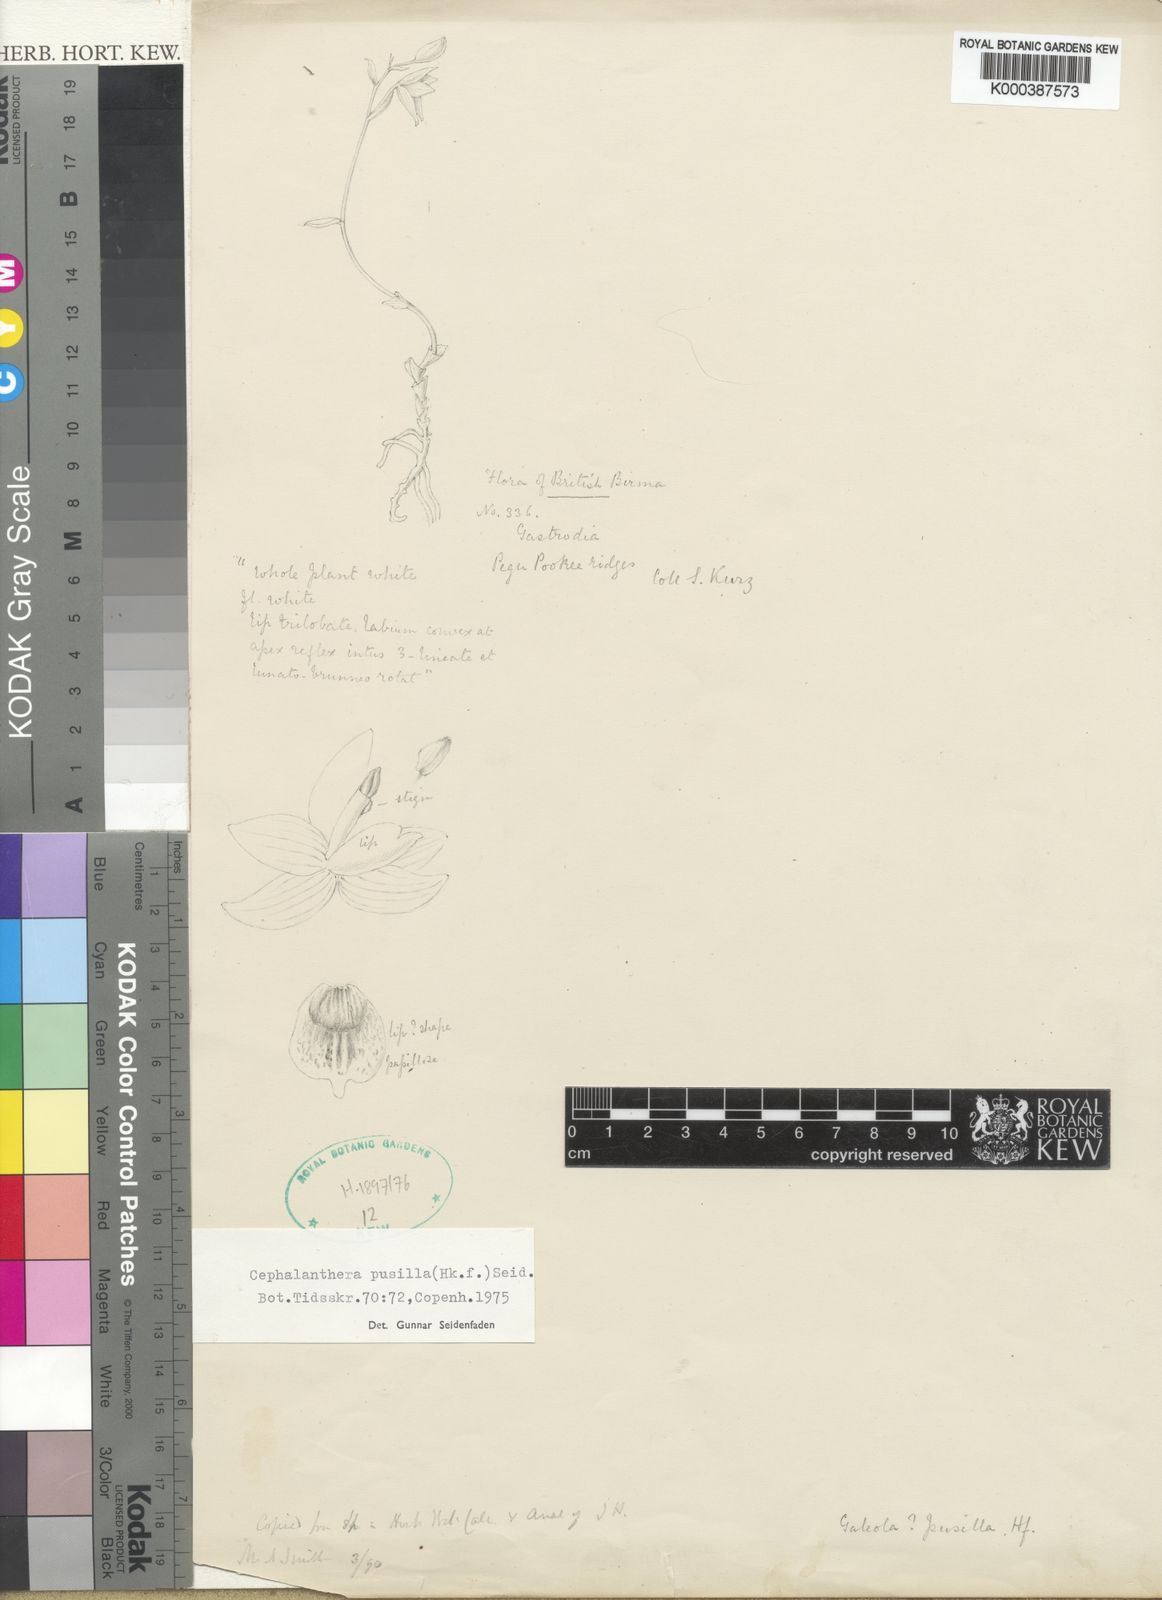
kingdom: Plantae
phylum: Tracheophyta
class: Liliopsida
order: Asparagales
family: Orchidaceae
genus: Cephalanthera
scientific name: Cephalanthera pusilla
